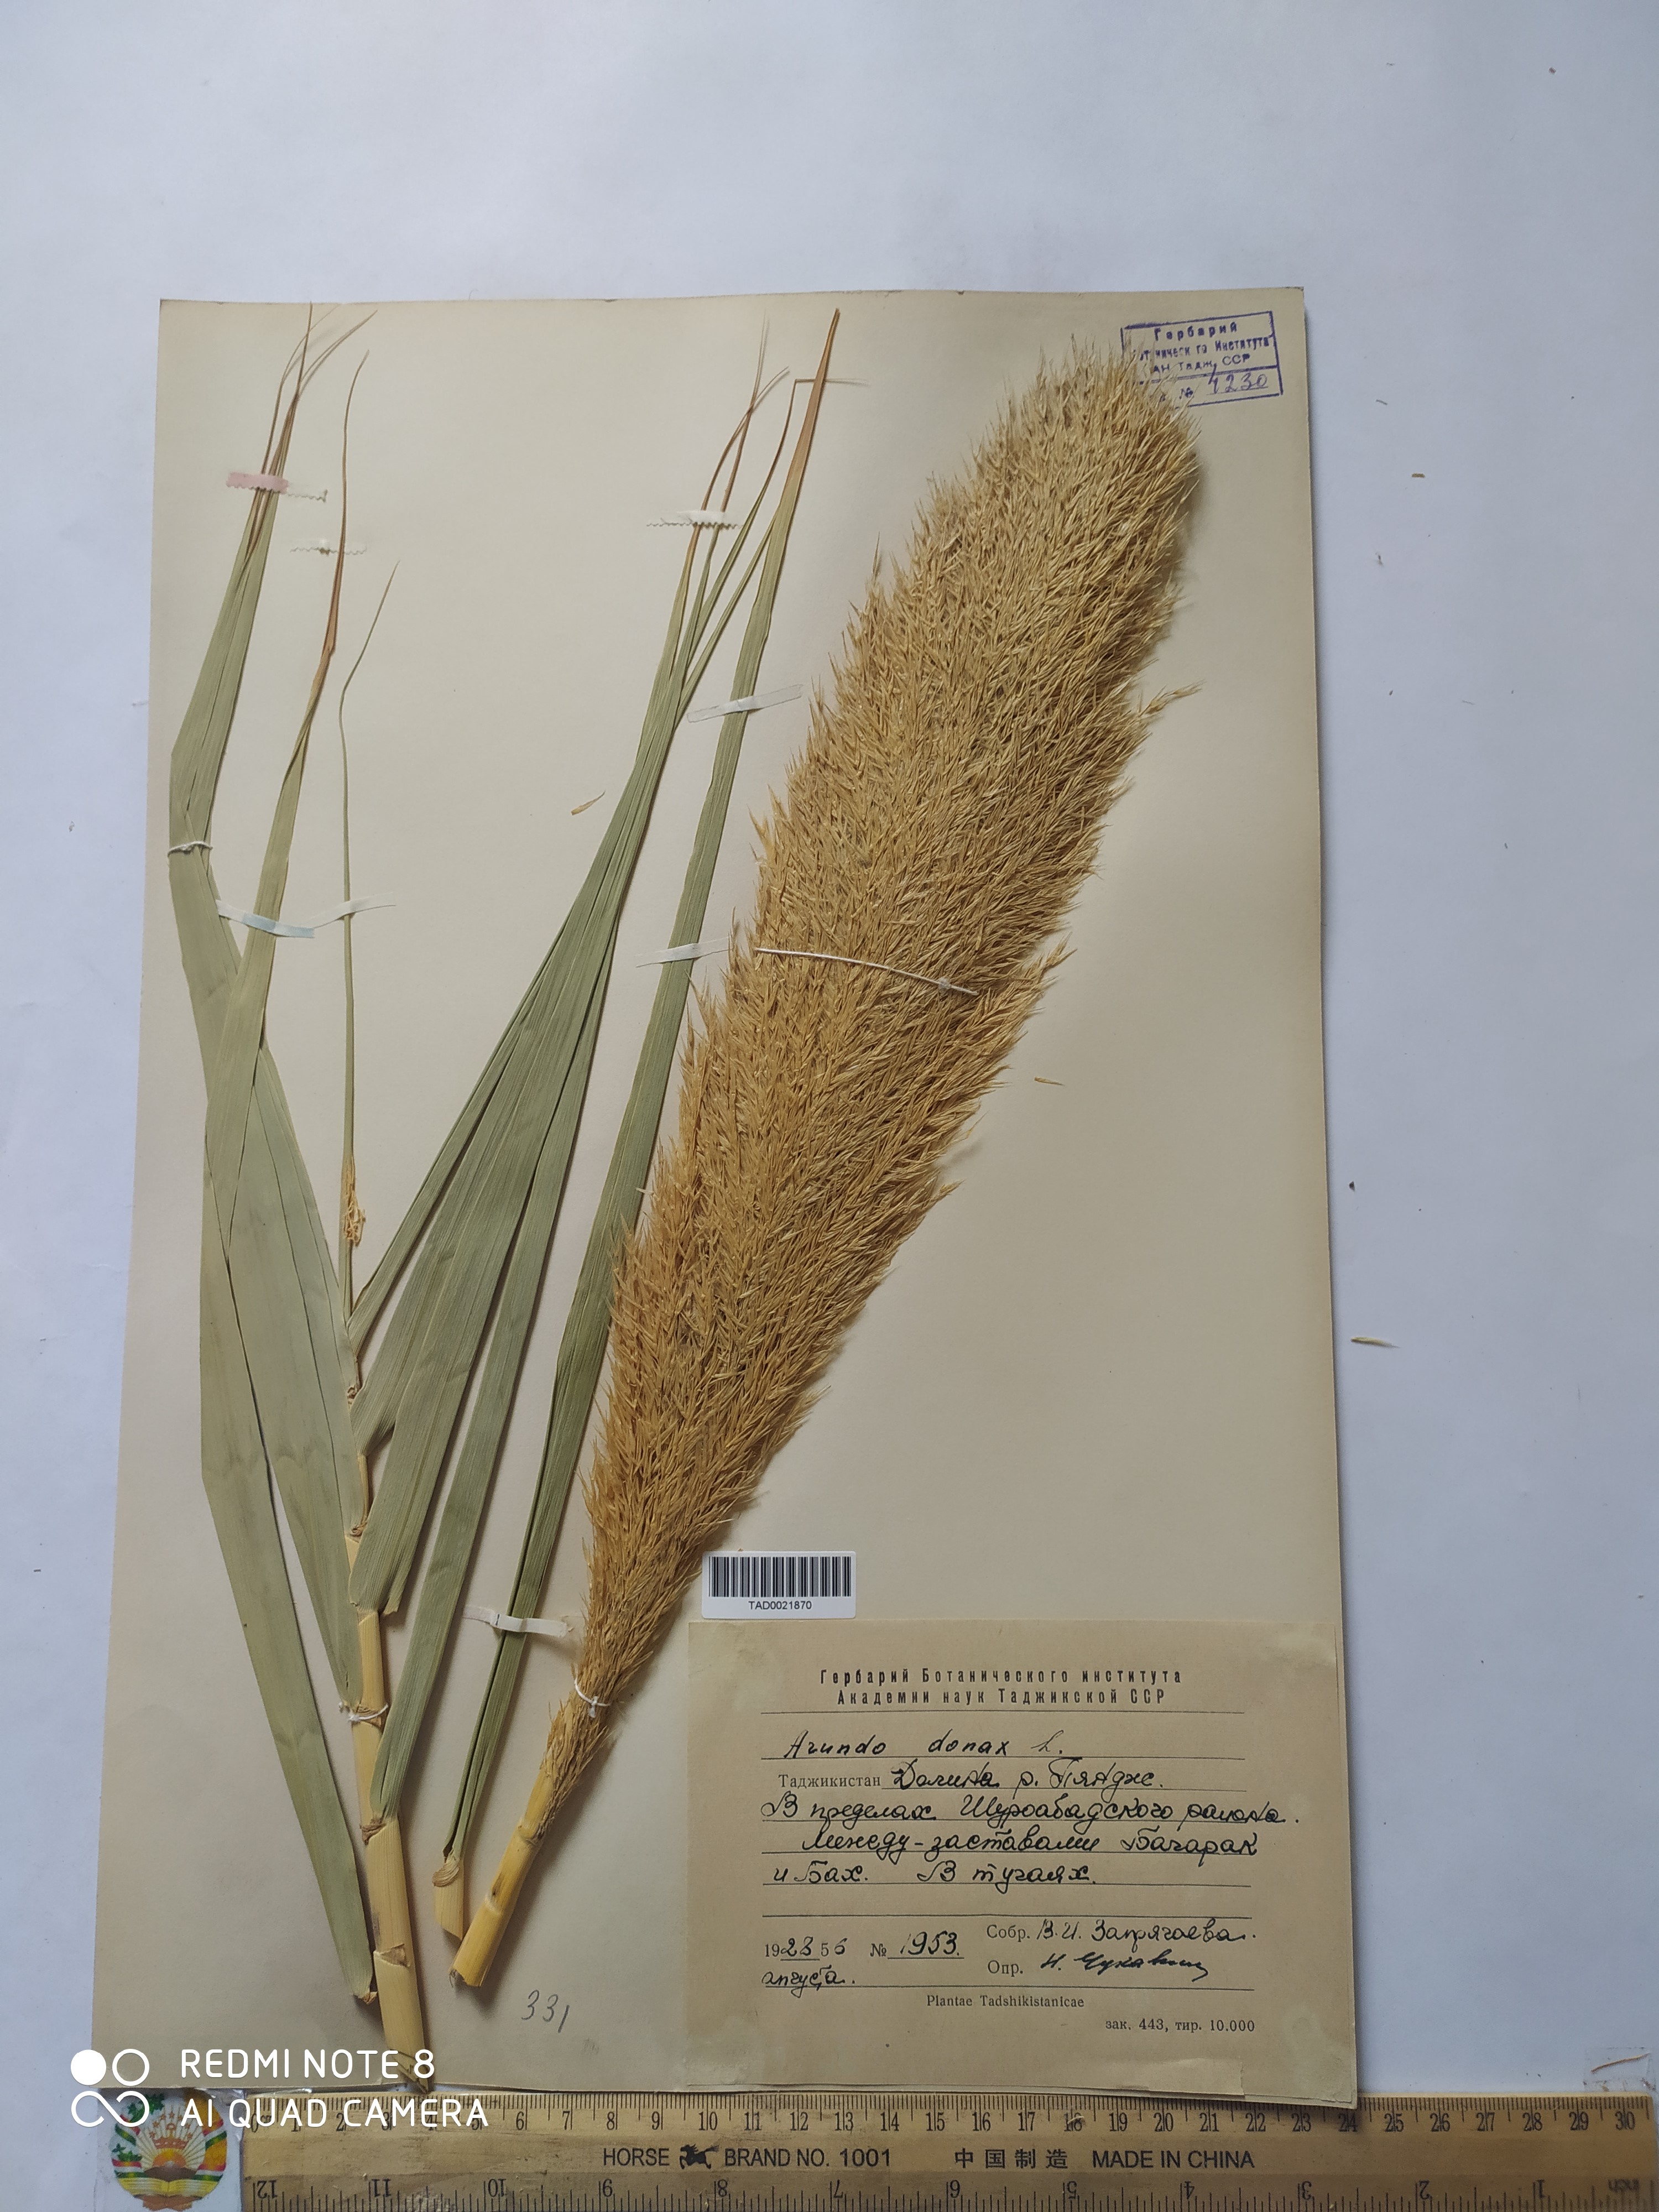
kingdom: Plantae
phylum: Tracheophyta
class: Liliopsida
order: Poales
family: Poaceae
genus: Arundo
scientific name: Arundo donax
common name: Giant reed
